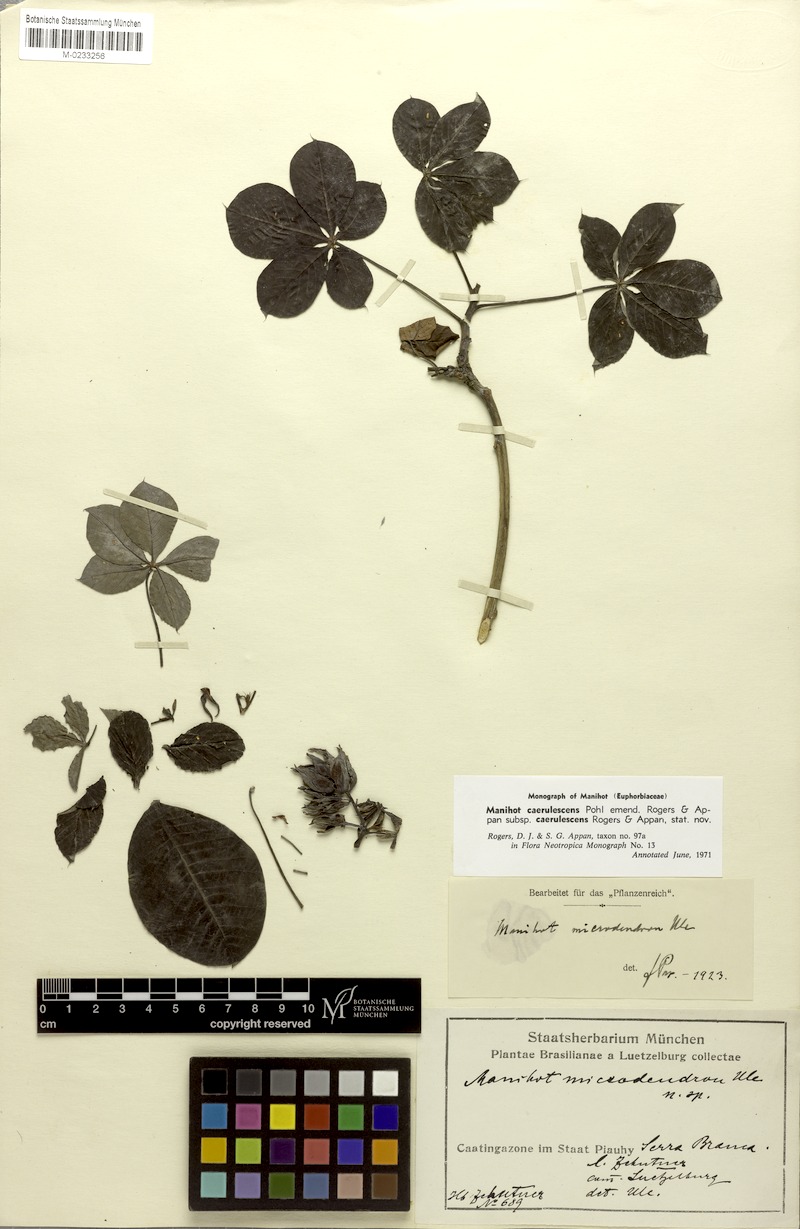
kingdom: Plantae
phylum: Tracheophyta
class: Magnoliopsida
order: Malpighiales
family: Euphorbiaceae
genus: Manihot
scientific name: Manihot caerulescens
